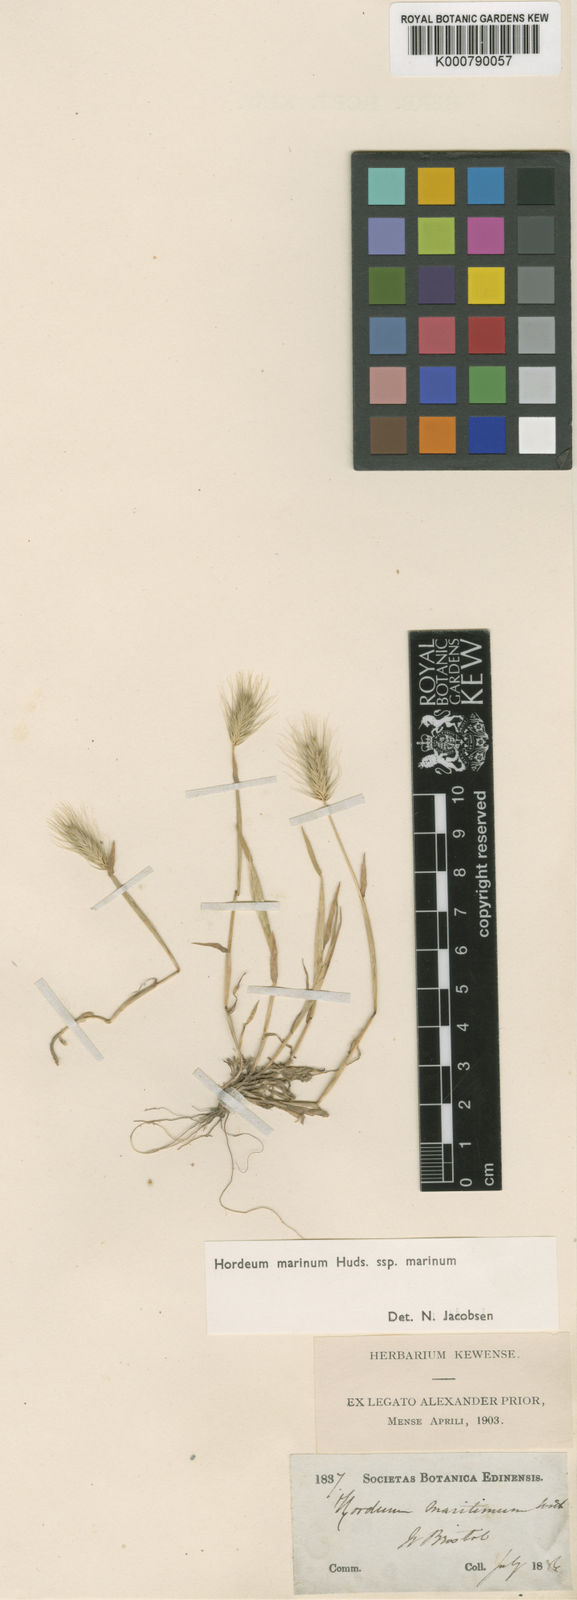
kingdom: Plantae
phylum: Tracheophyta
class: Liliopsida
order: Poales
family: Poaceae
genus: Hordeum
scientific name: Hordeum marinum
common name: Sea barley
